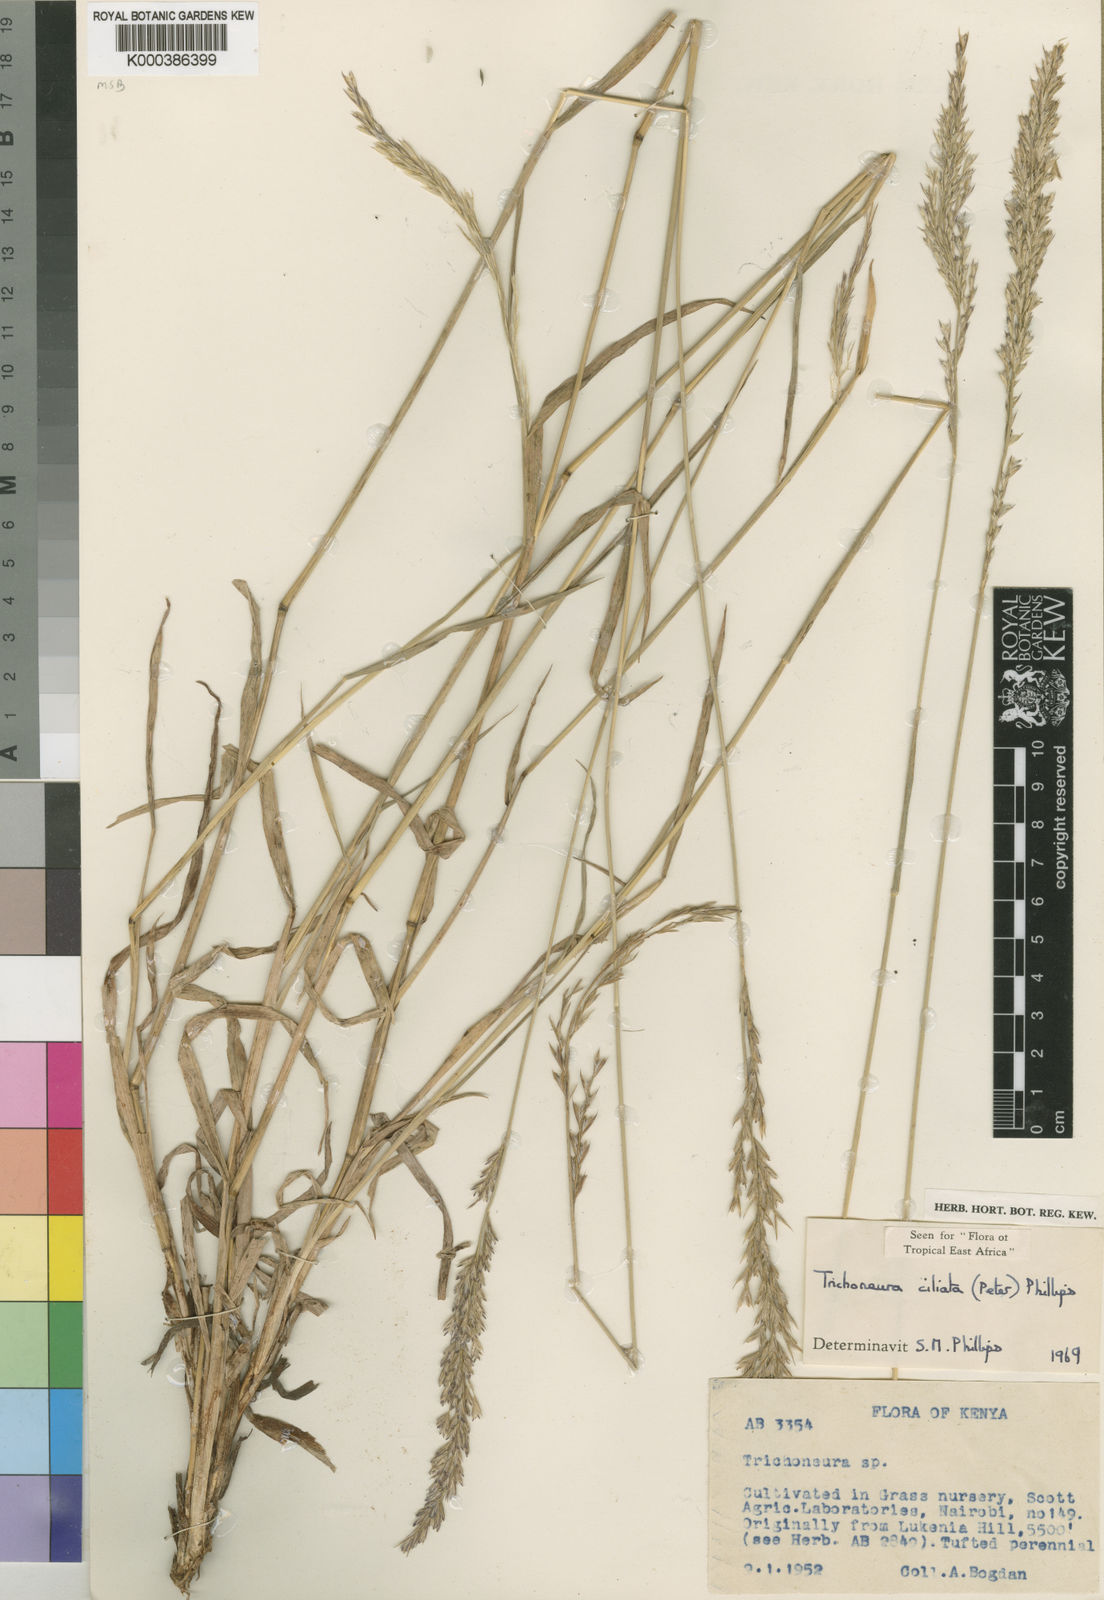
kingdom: Plantae
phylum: Tracheophyta
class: Liliopsida
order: Poales
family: Poaceae
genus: Trichoneura
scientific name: Trichoneura ciliata
